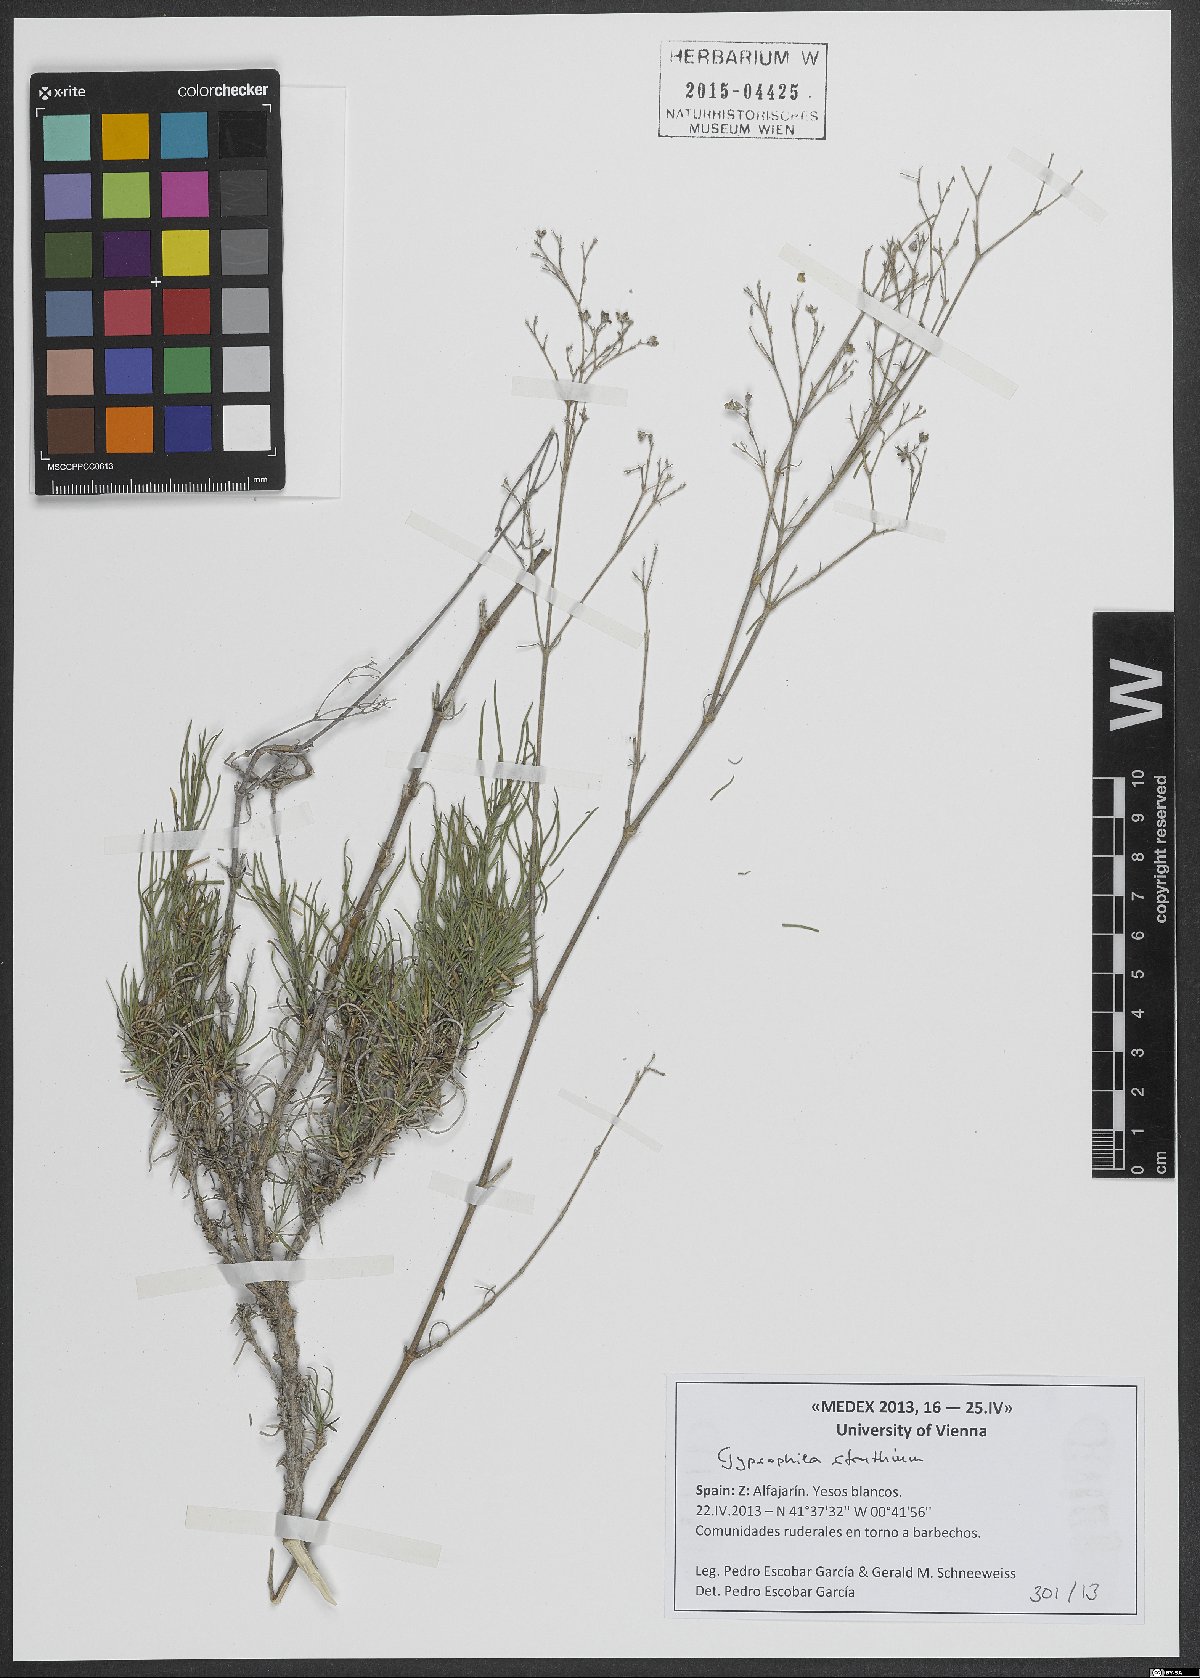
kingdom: Plantae
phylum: Tracheophyta
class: Magnoliopsida
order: Caryophyllales
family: Caryophyllaceae
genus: Gypsophila
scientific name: Gypsophila struthium
